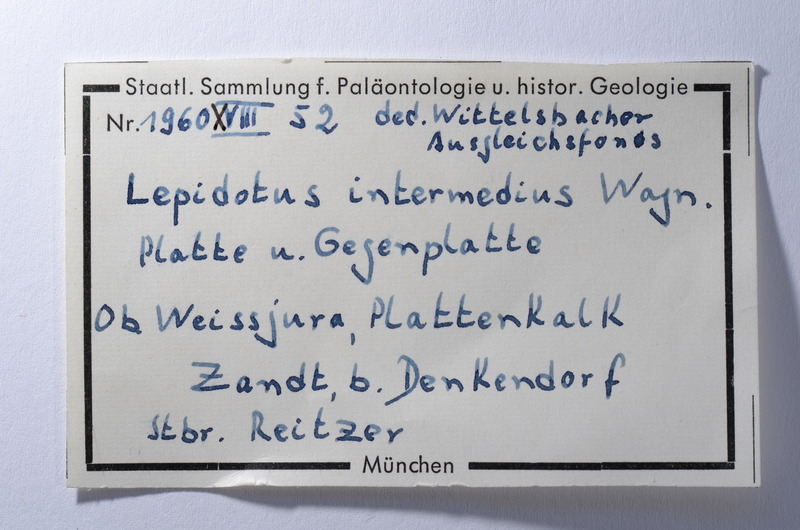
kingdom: Animalia
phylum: Chordata
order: Lepisosteiformes
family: Lepidotidae
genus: Lepidotes
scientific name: Lepidotes intermedius
